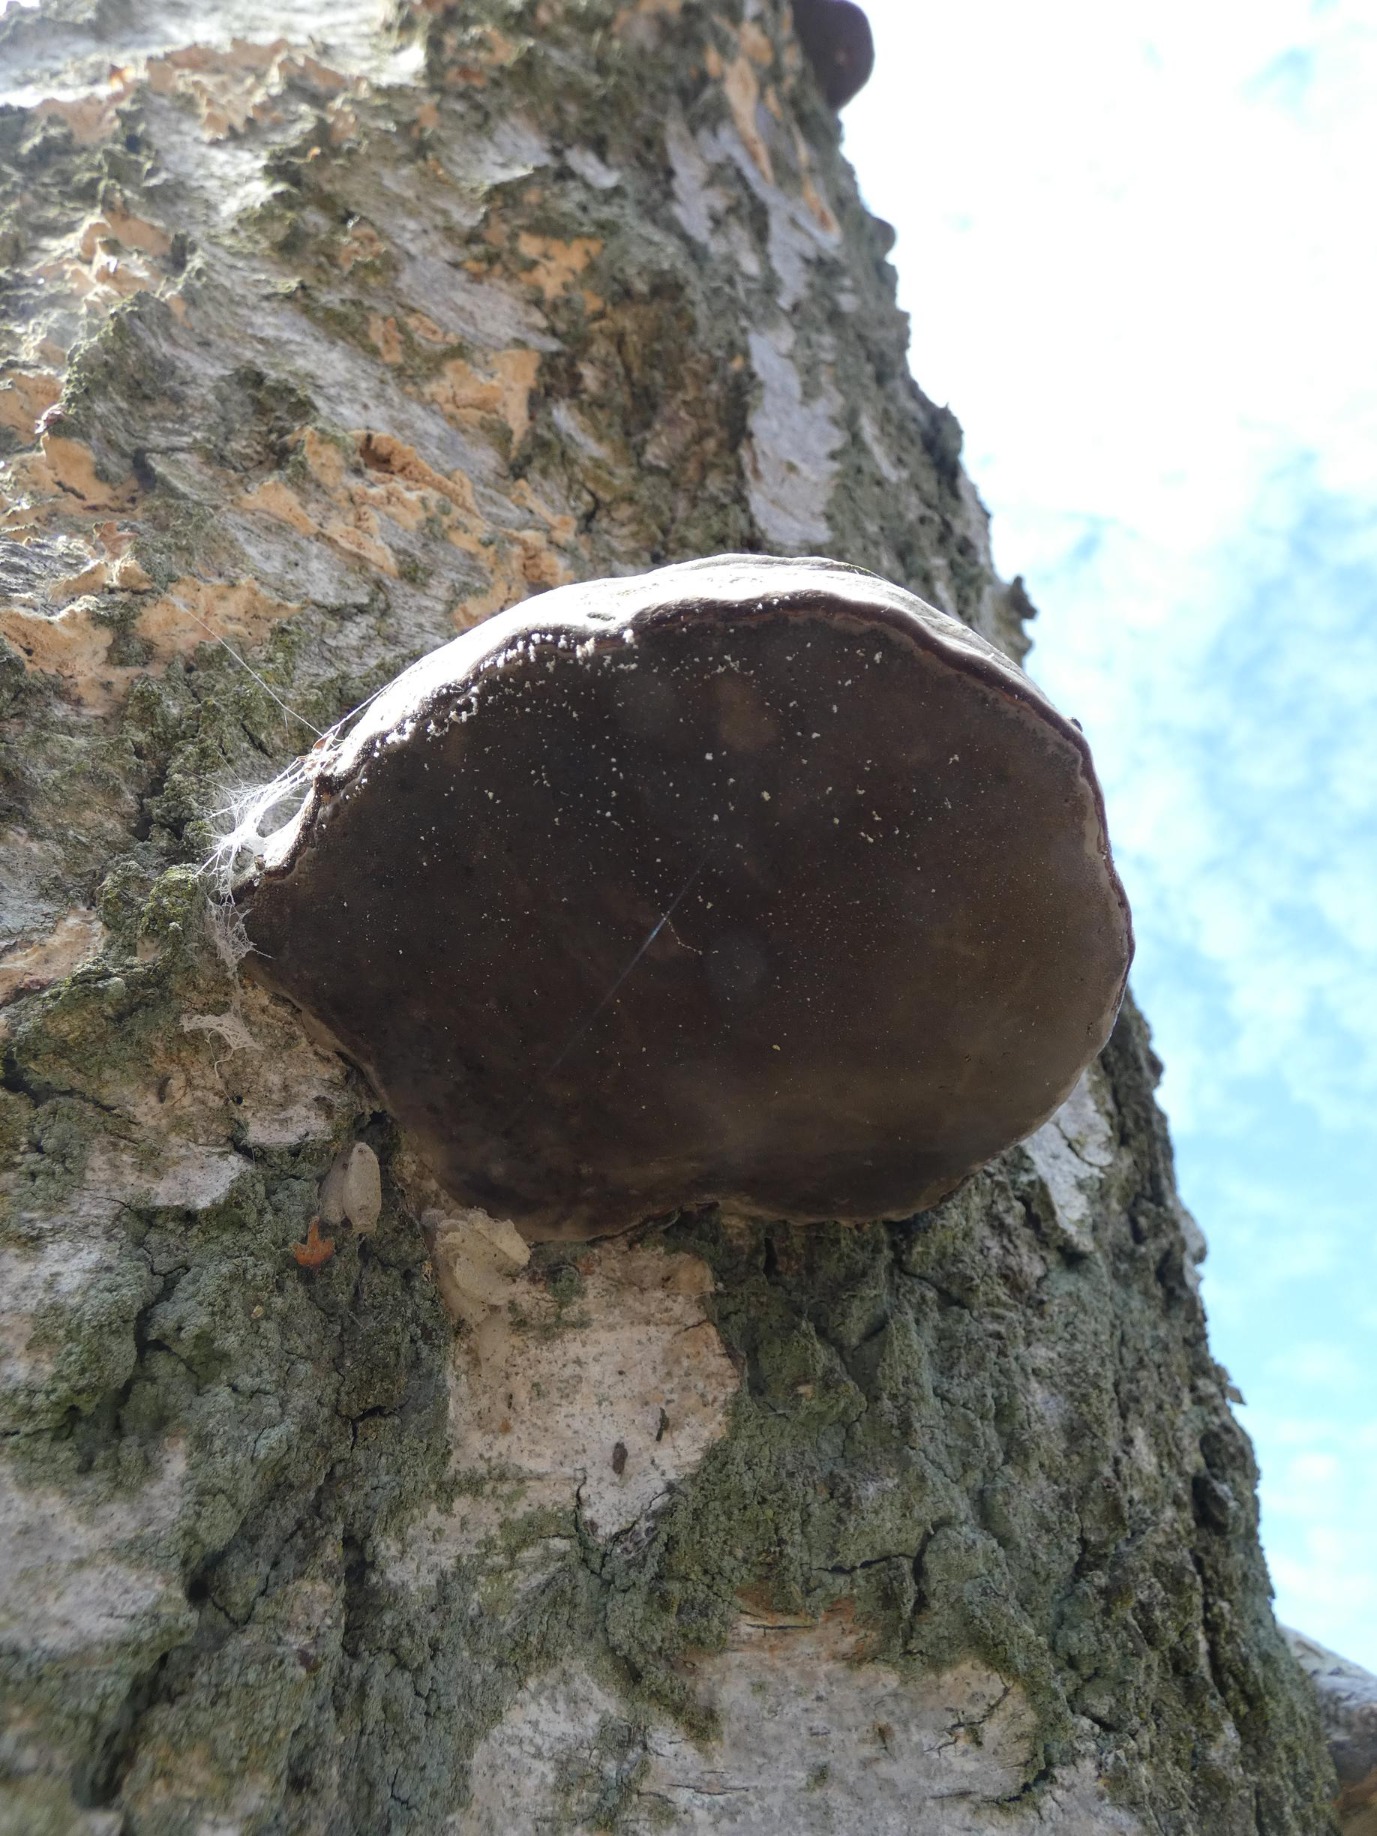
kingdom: Fungi
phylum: Basidiomycota
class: Agaricomycetes
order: Polyporales
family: Polyporaceae
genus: Fomes
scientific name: Fomes fomentarius
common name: Tøndersvamp
